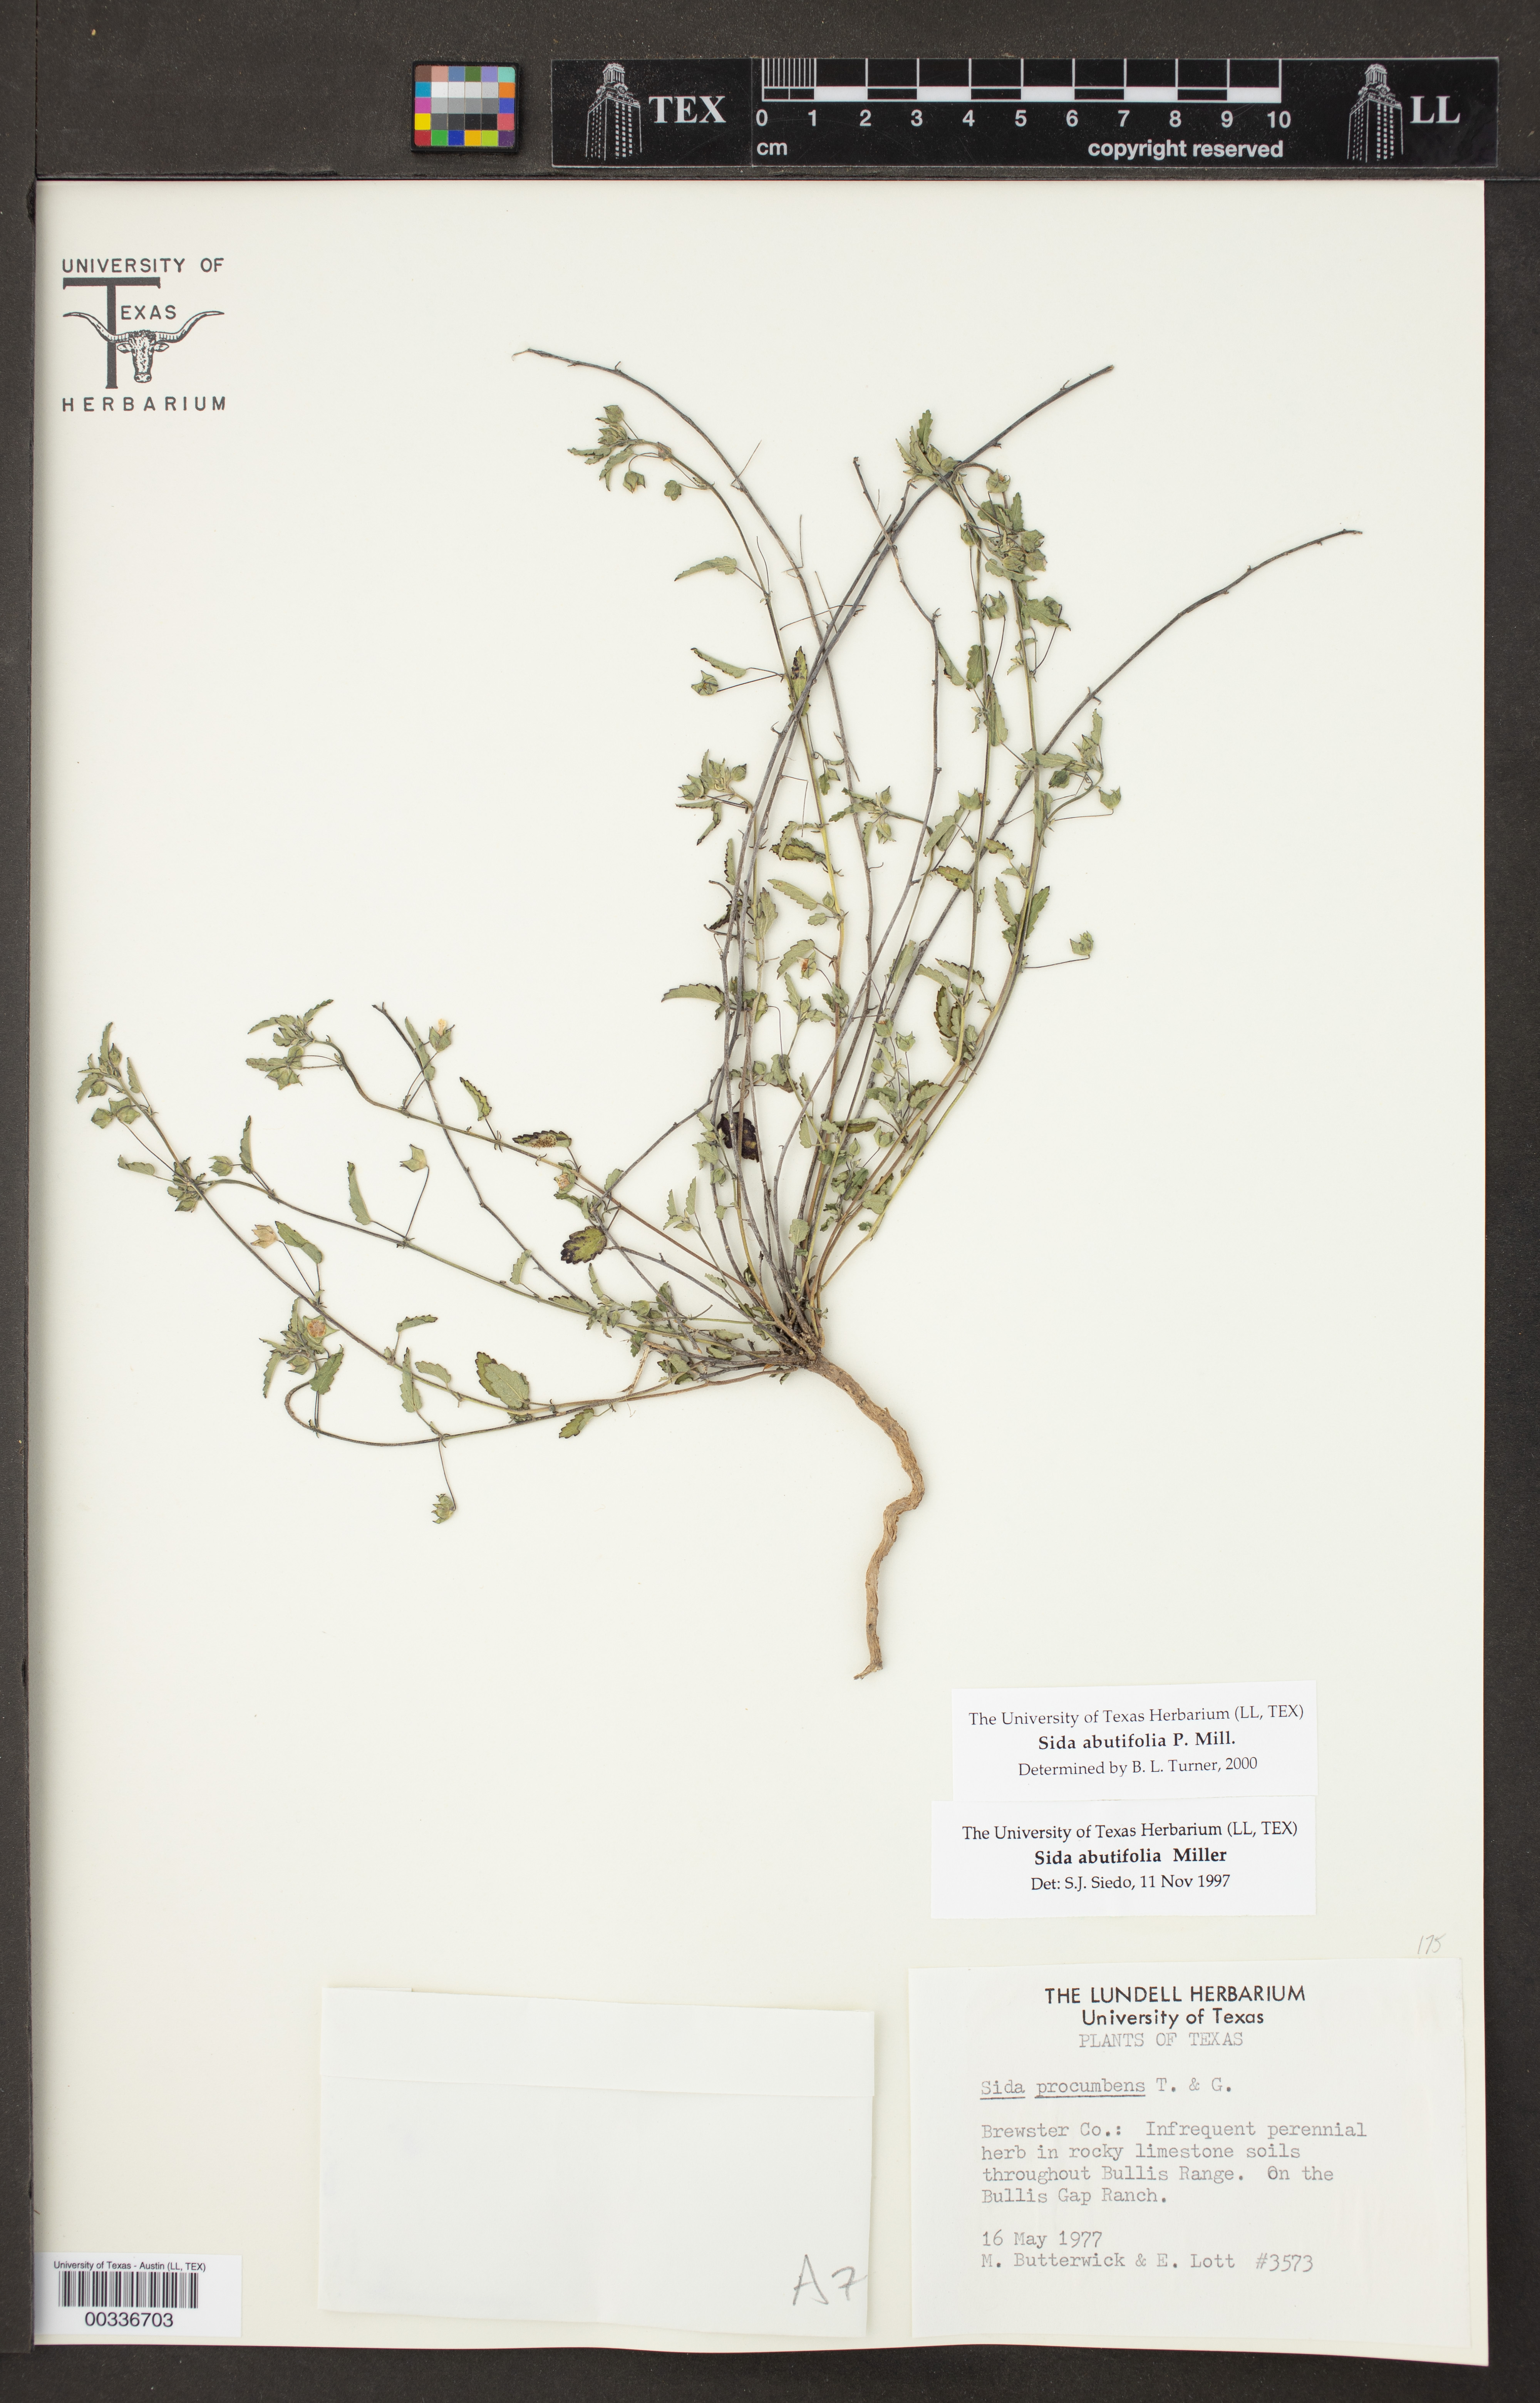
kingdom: Plantae
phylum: Tracheophyta
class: Magnoliopsida
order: Malvales
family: Malvaceae
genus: Sida
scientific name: Sida abutilifolia
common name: Spreading fanpetals
